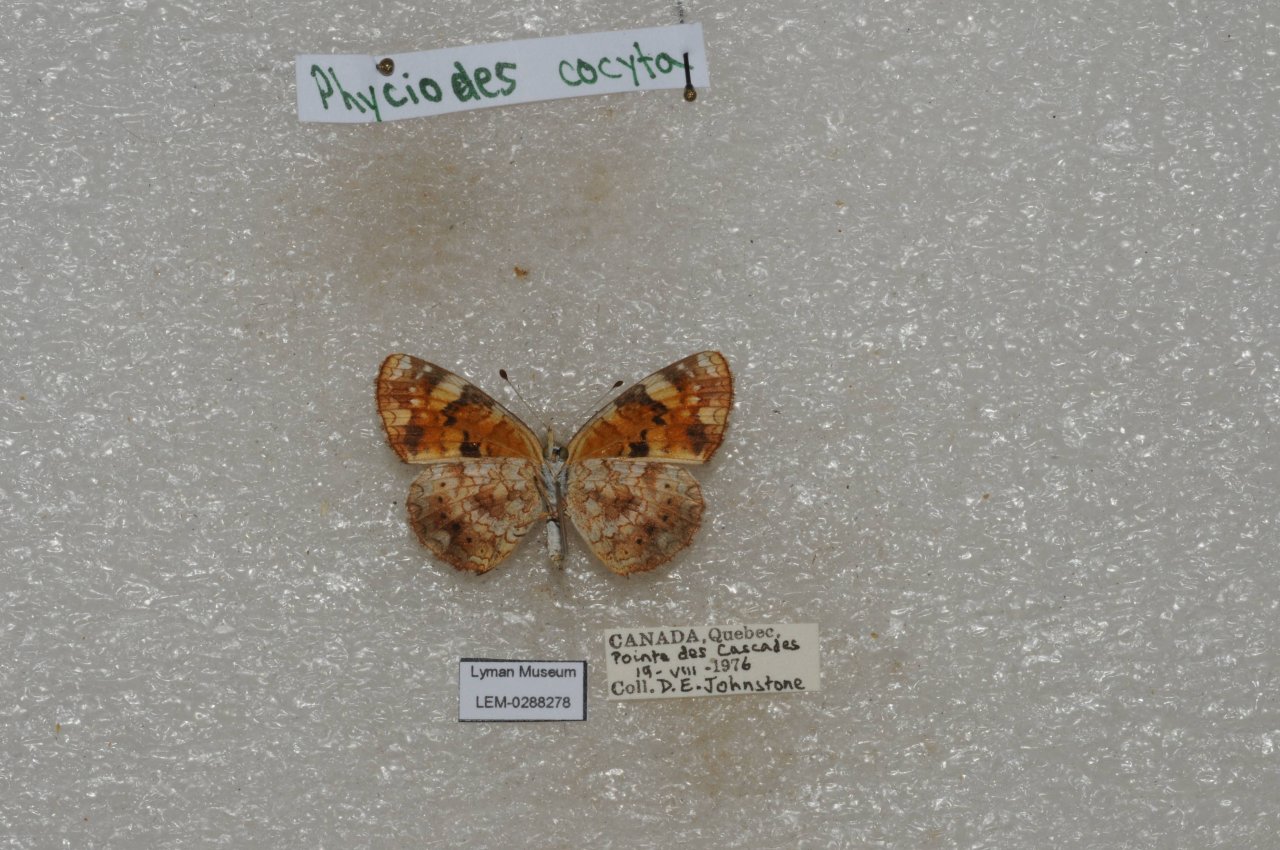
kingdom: Animalia
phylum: Arthropoda
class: Insecta
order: Lepidoptera
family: Nymphalidae
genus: Phyciodes
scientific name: Phyciodes tharos
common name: Northern Crescent
